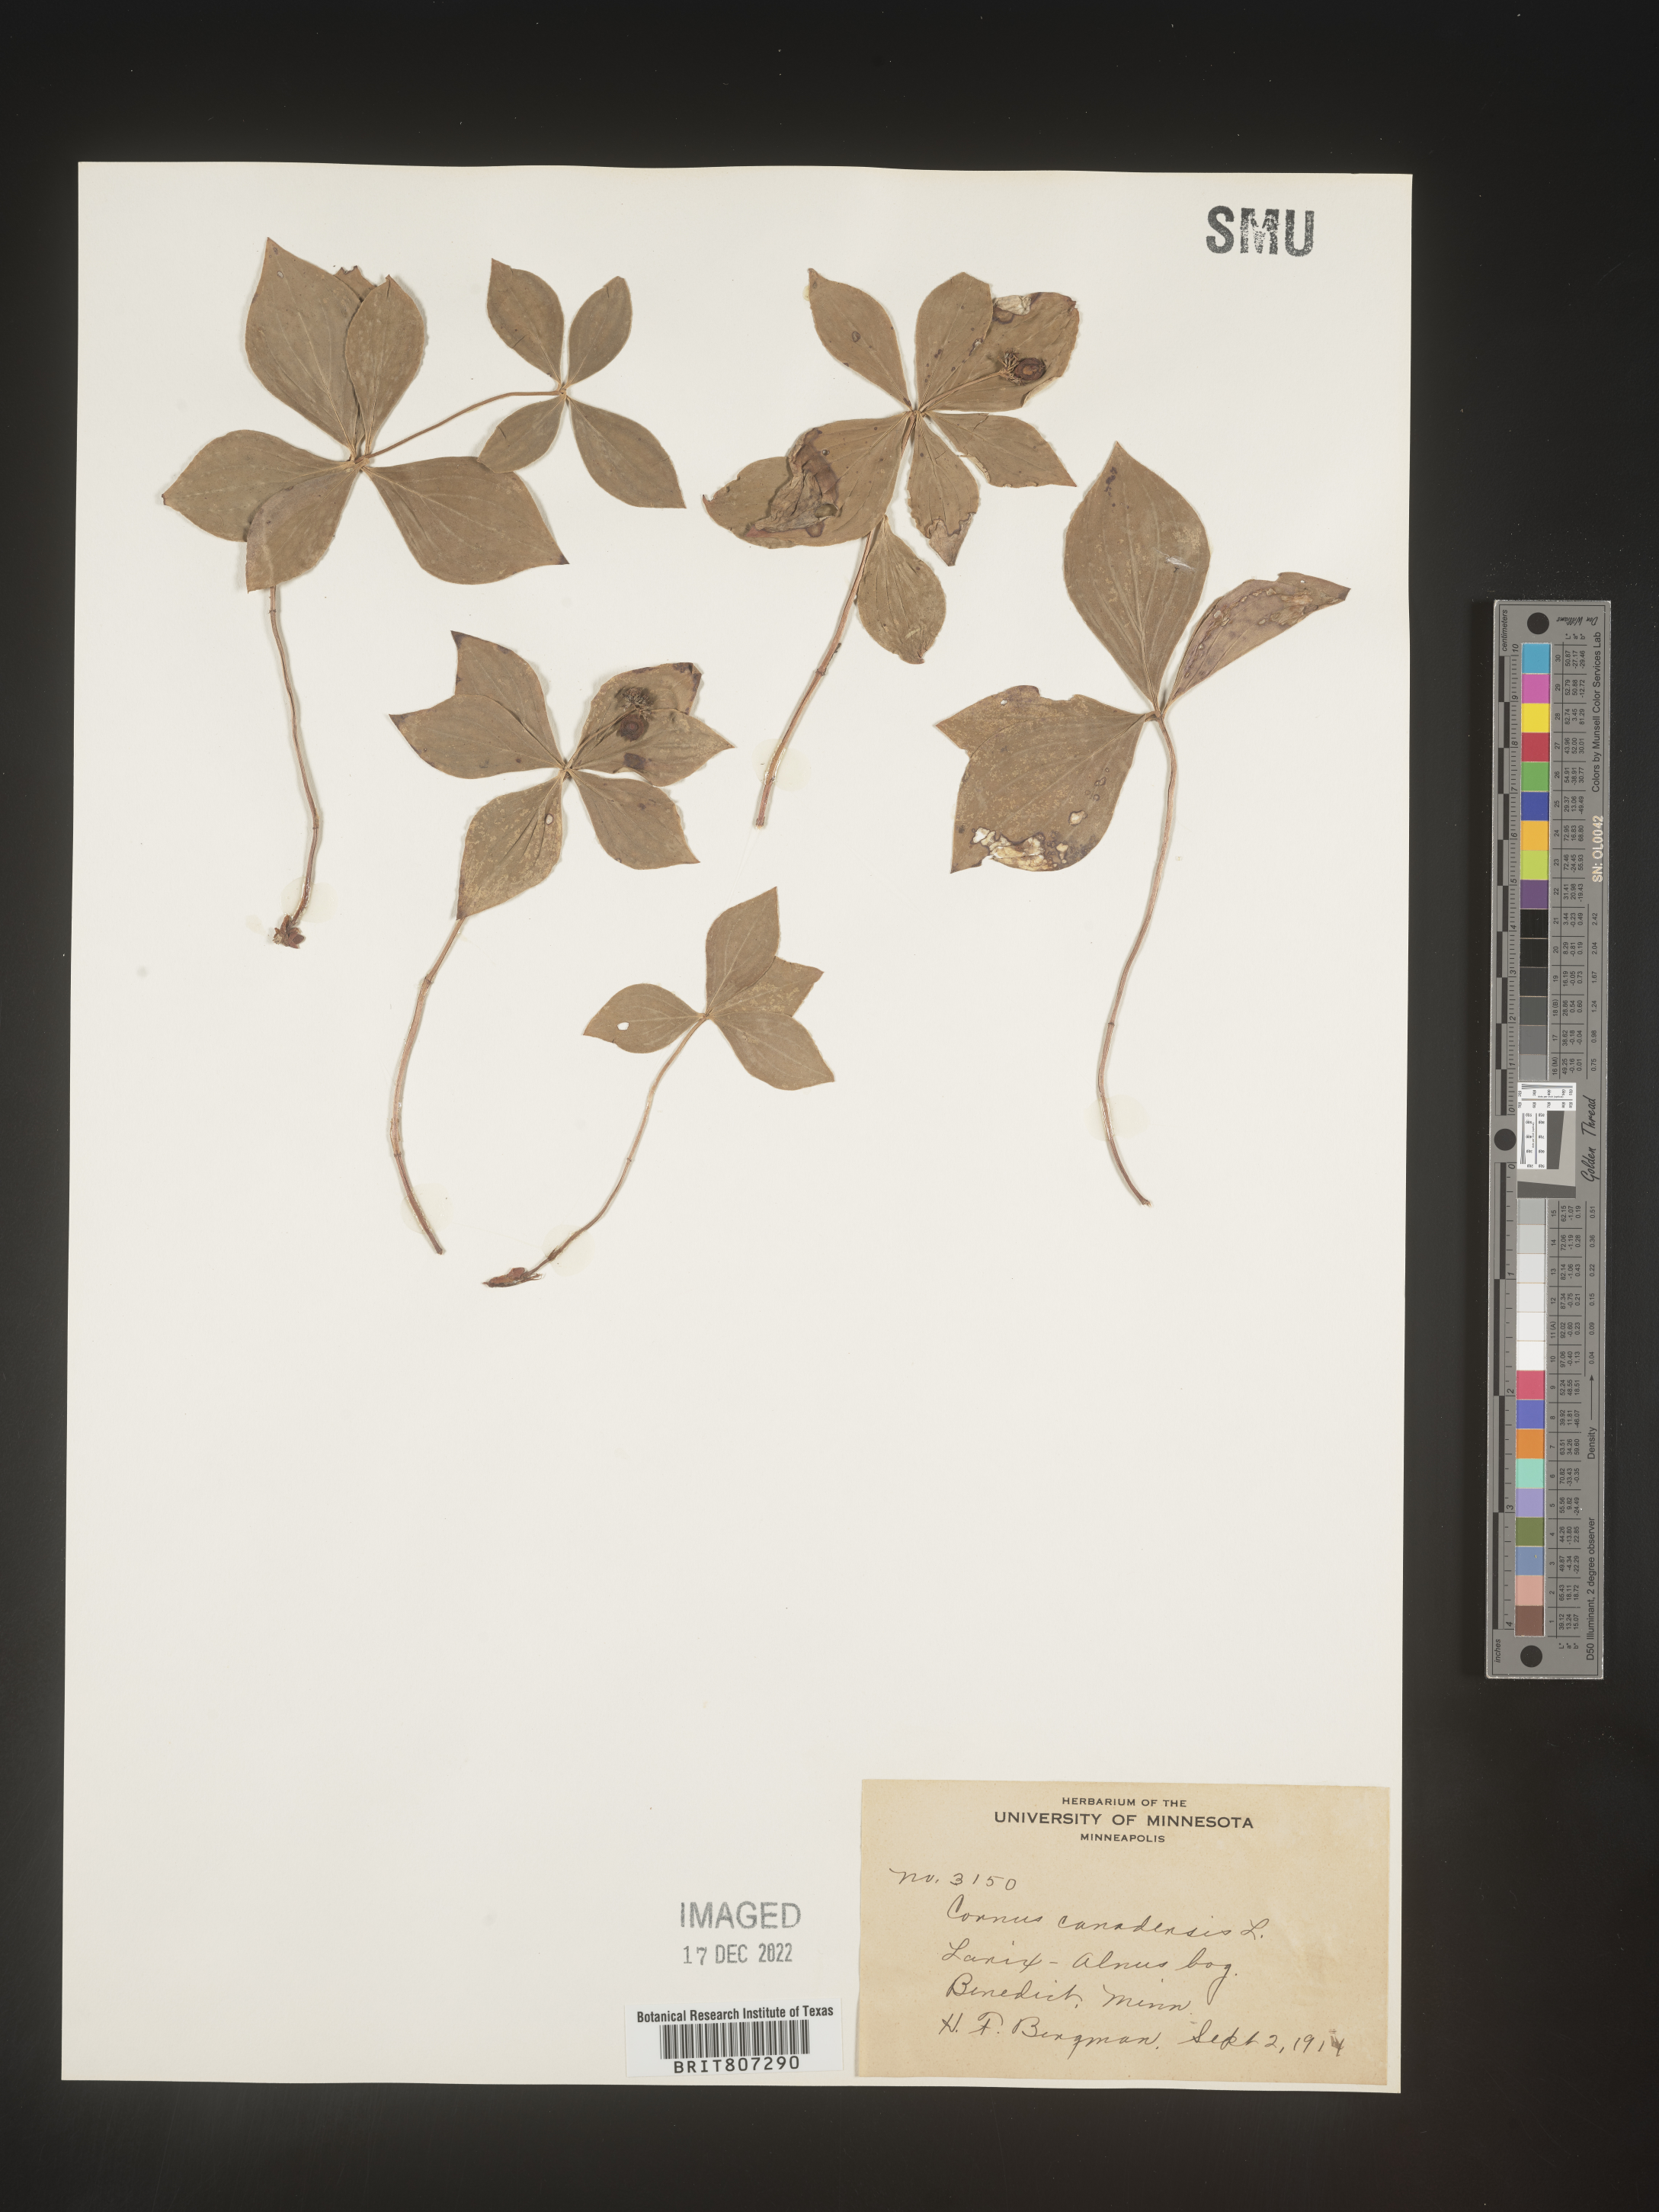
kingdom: Plantae
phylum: Tracheophyta
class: Magnoliopsida
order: Cornales
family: Cornaceae
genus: Cornus
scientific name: Cornus canadensis
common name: Creeping dogwood
